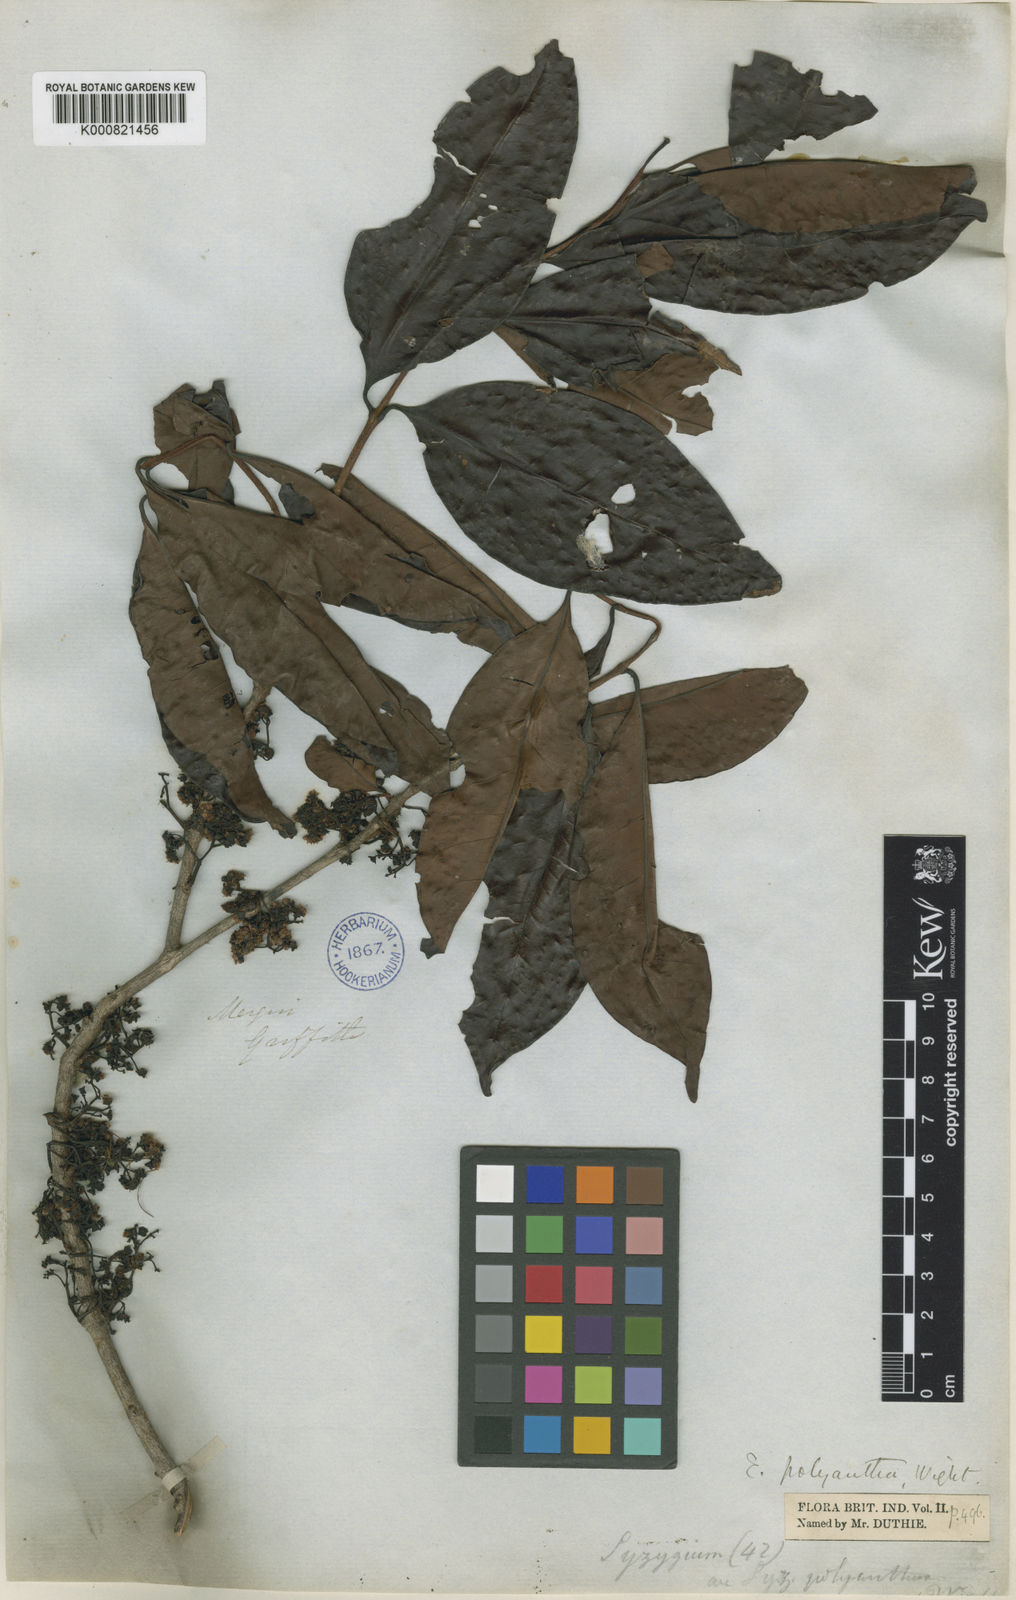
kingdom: Plantae
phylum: Tracheophyta
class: Magnoliopsida
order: Myrtales
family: Myrtaceae
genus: Syzygium
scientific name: Syzygium polyanthum
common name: Indonesian bayleaf
